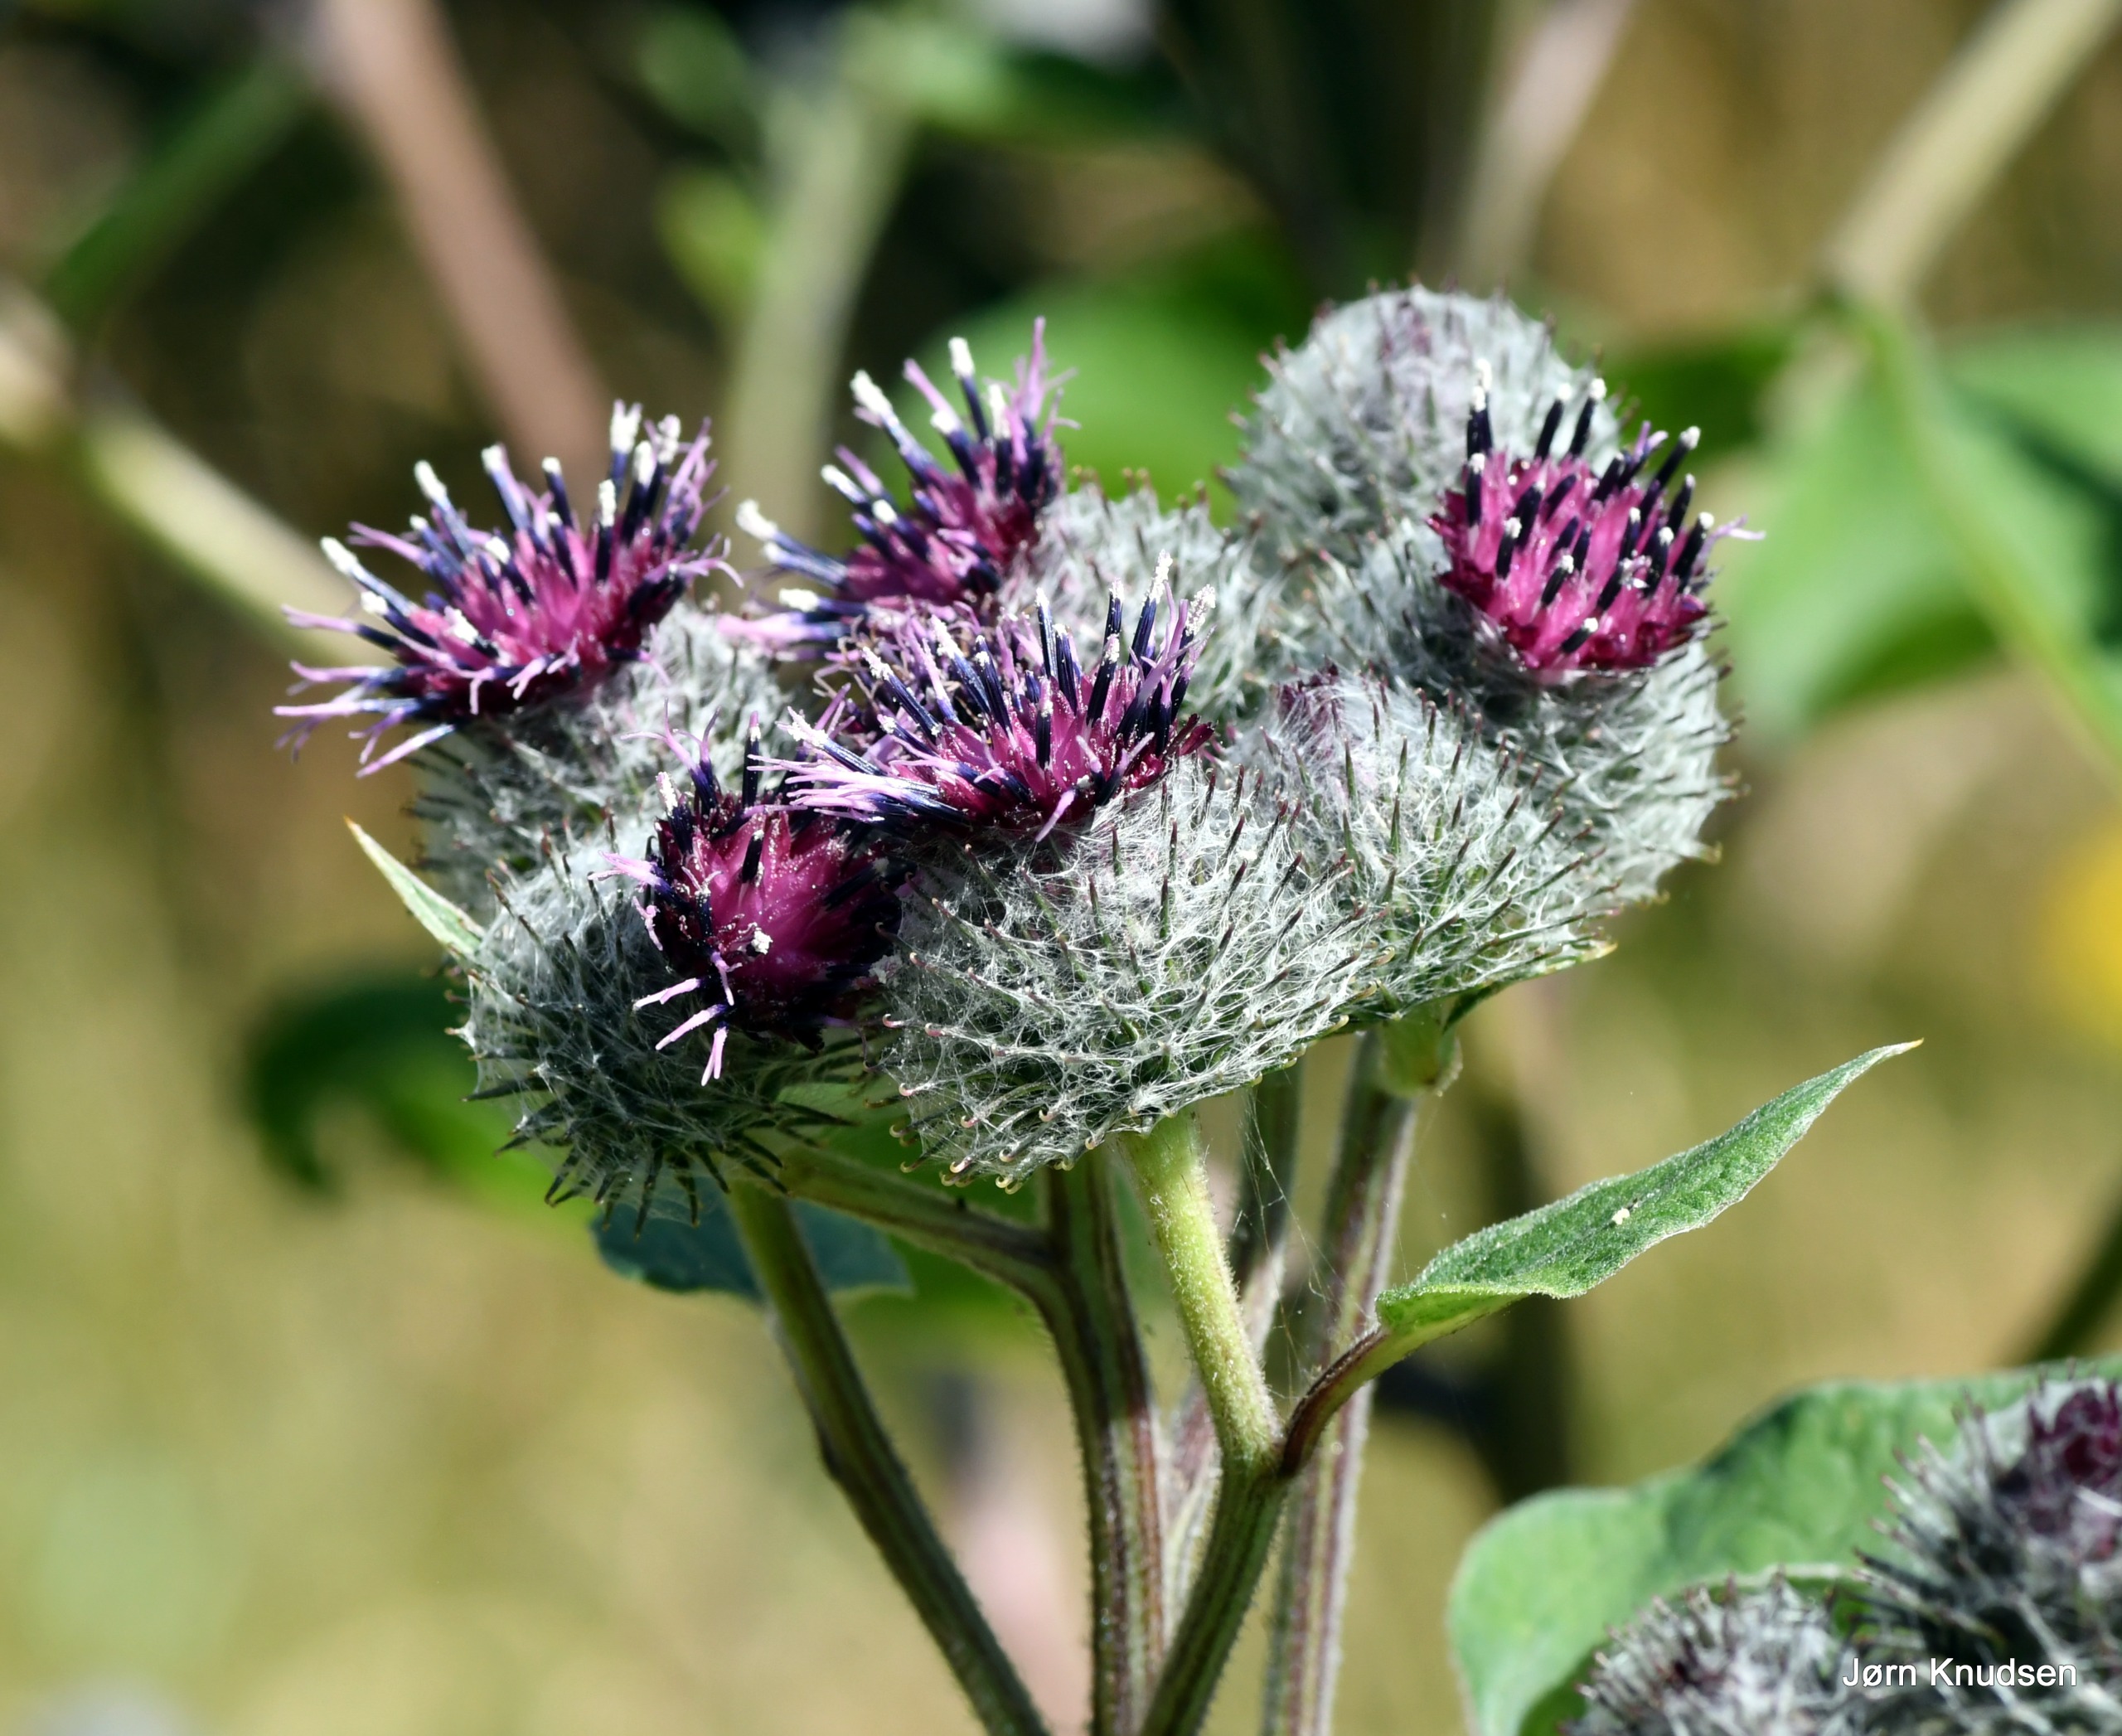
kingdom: Plantae
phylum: Tracheophyta
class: Magnoliopsida
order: Asterales
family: Asteraceae
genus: Arctium
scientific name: Arctium tomentosum
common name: Filtet burre
